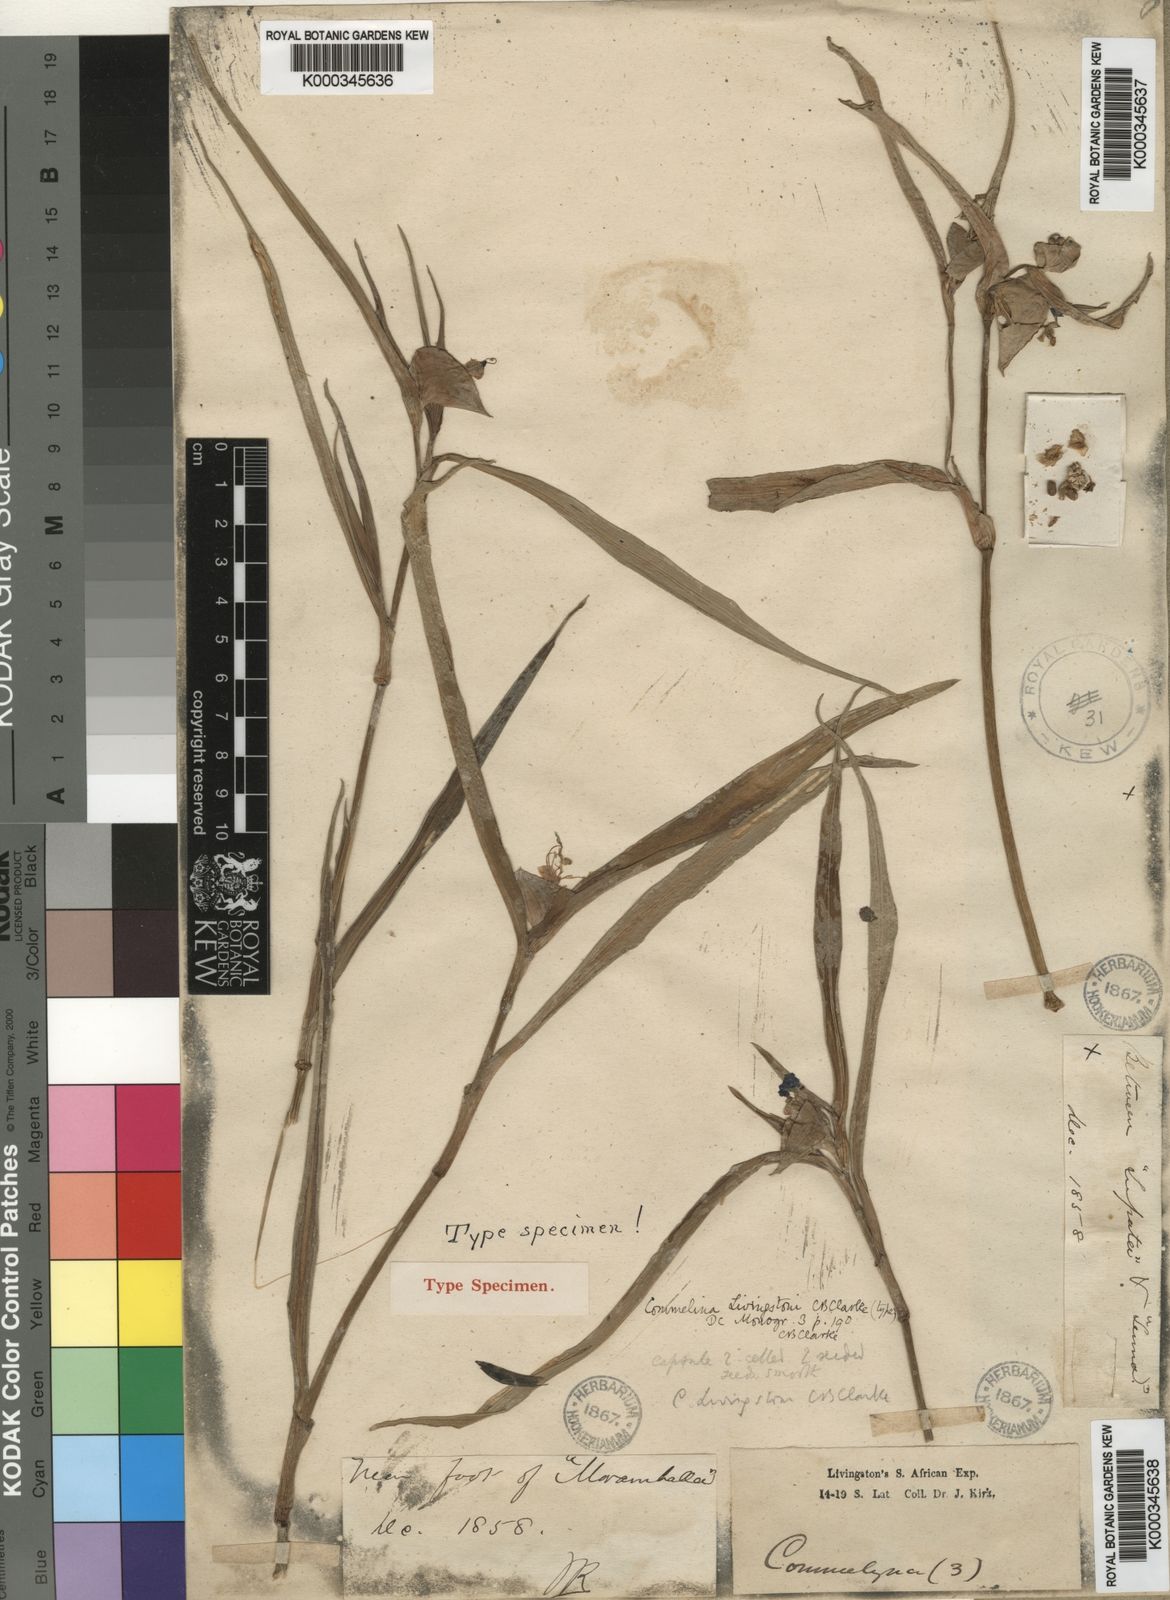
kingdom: Plantae
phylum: Tracheophyta
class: Liliopsida
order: Commelinales
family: Commelinaceae
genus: Commelina
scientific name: Commelina erecta
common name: Blousel blommetjie
